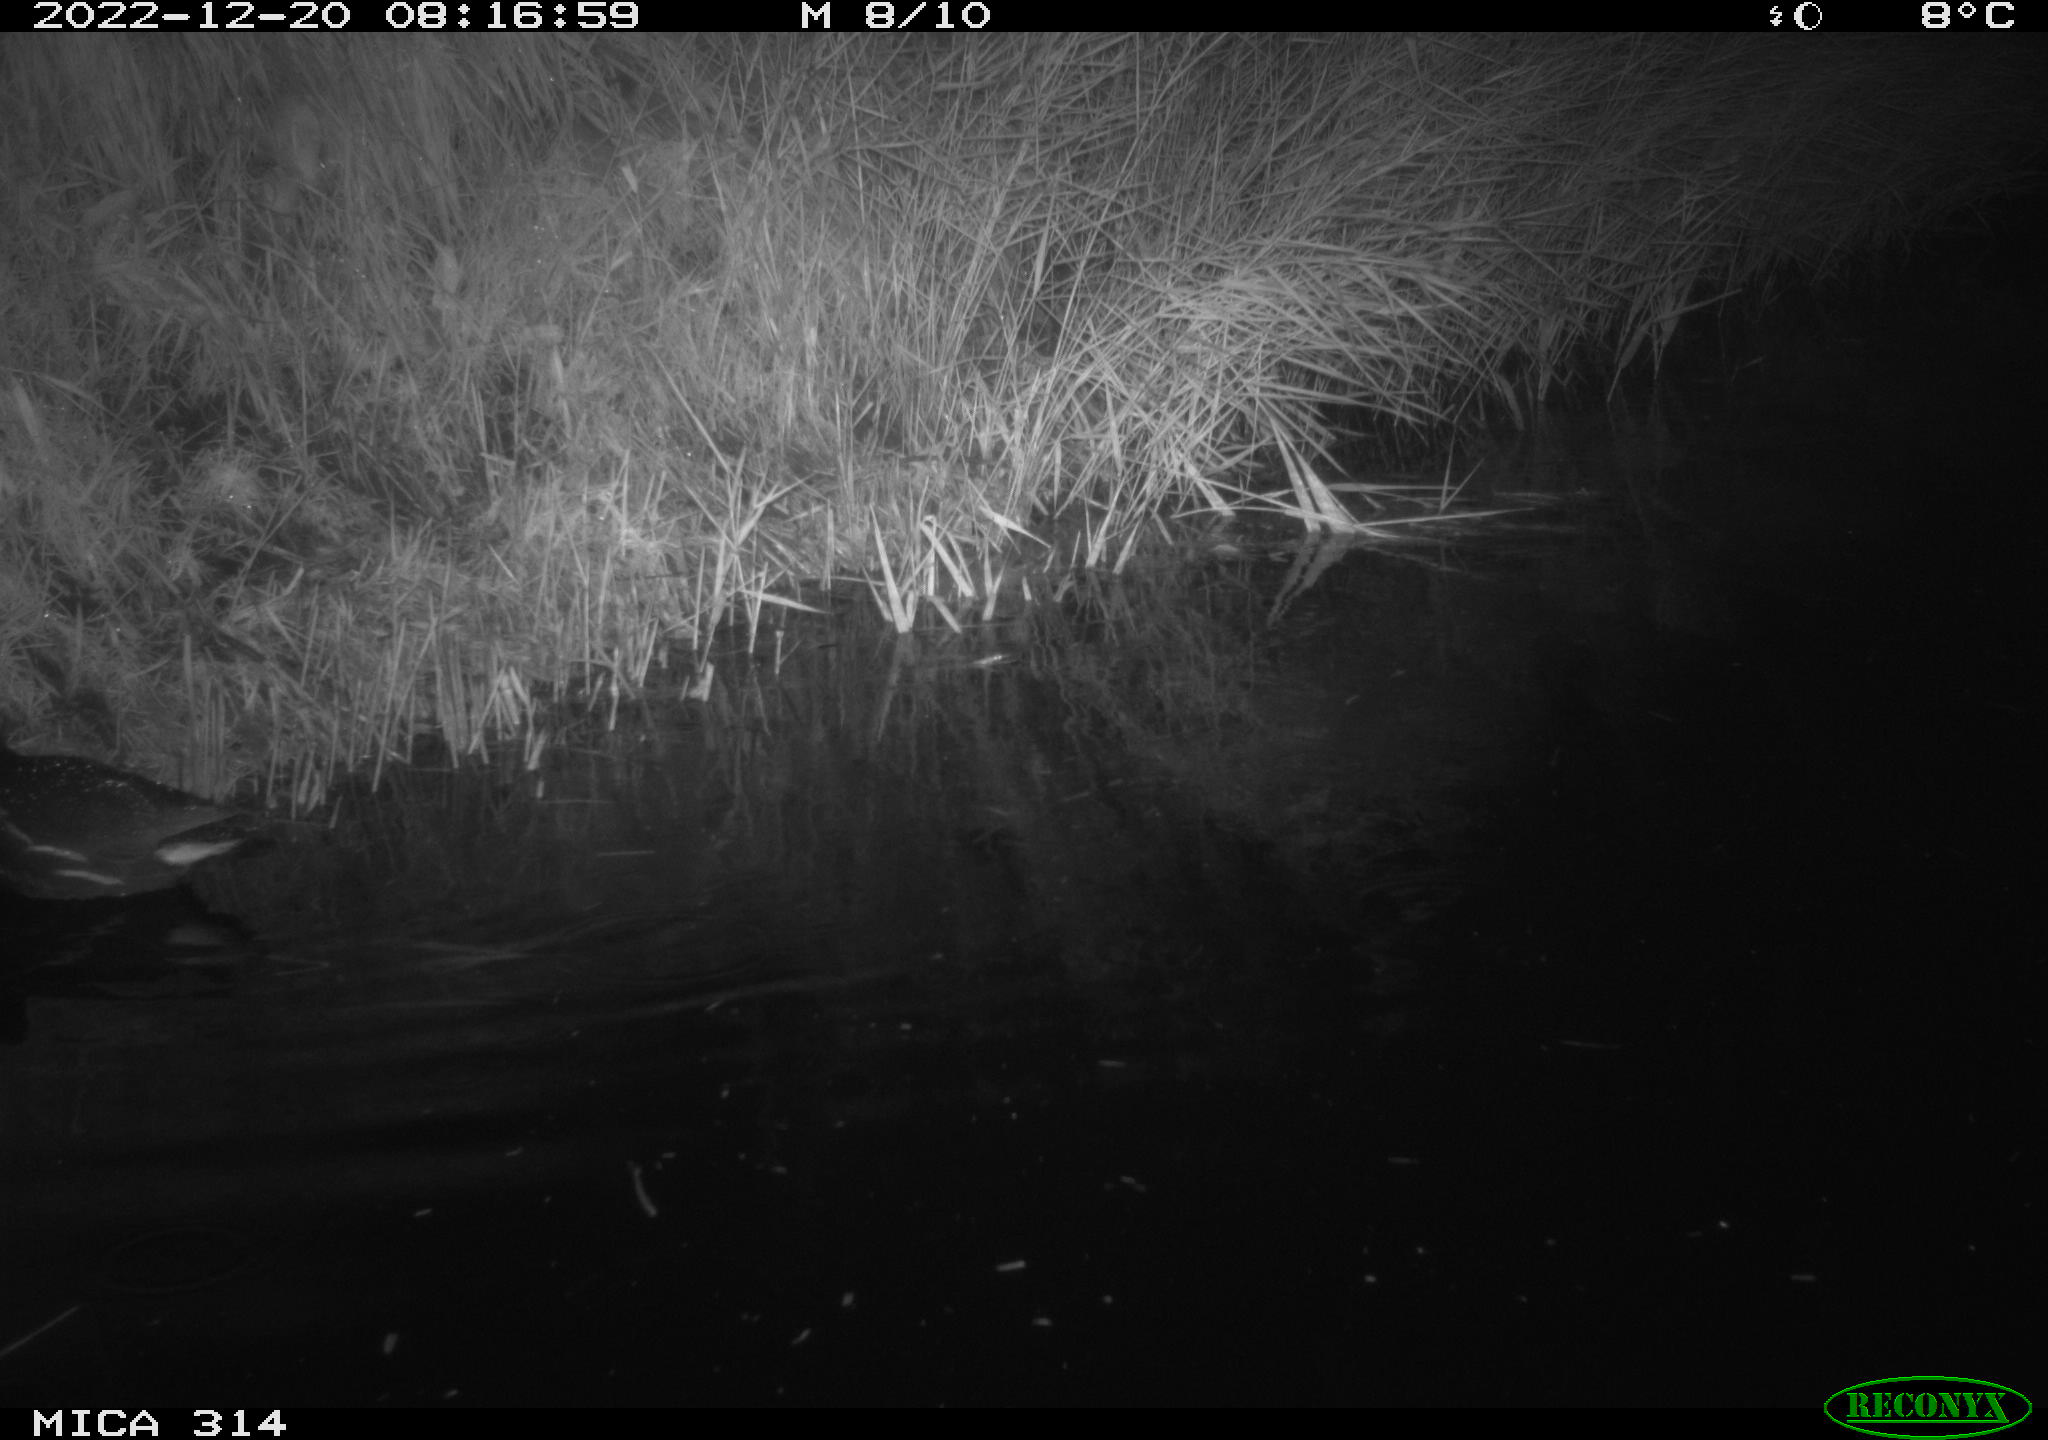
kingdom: Animalia
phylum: Chordata
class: Aves
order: Gruiformes
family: Rallidae
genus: Gallinula
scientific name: Gallinula chloropus
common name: Common moorhen
